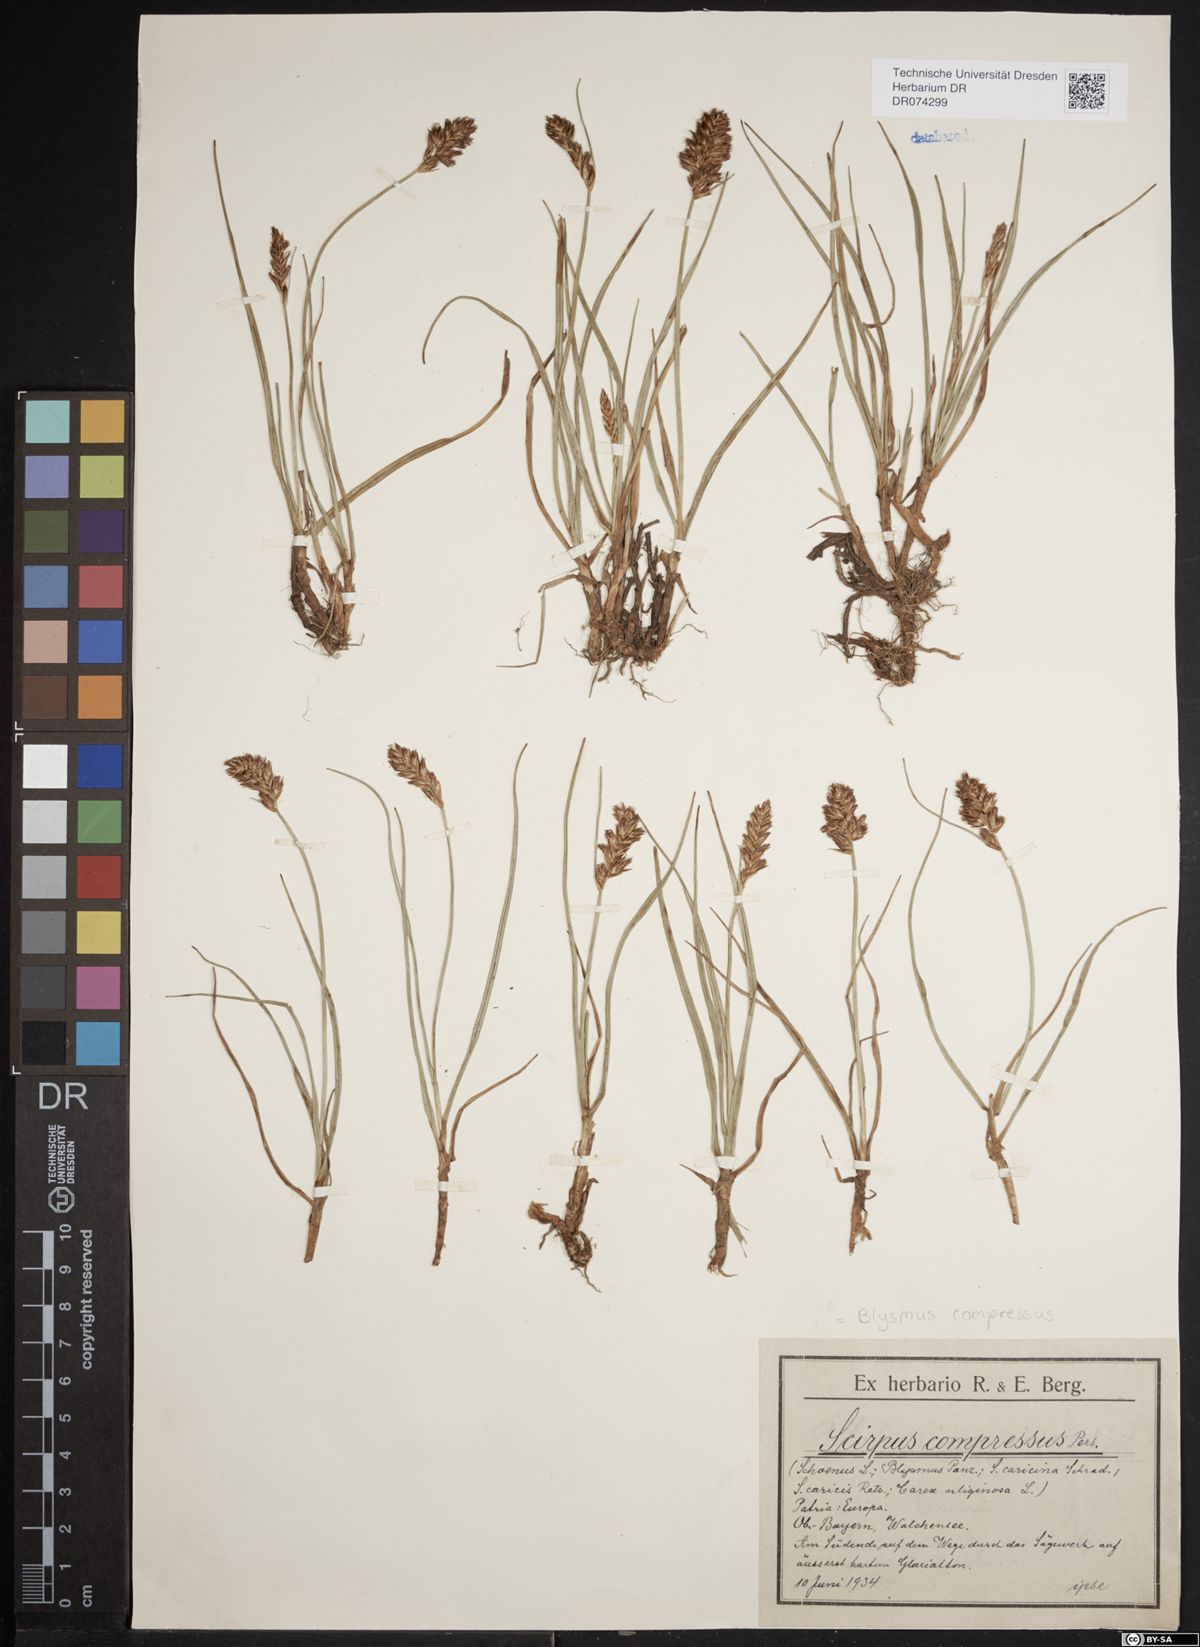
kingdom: Plantae
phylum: Tracheophyta
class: Liliopsida
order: Poales
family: Cyperaceae
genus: Blysmus
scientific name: Blysmus compressus
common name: Flat-sedge
